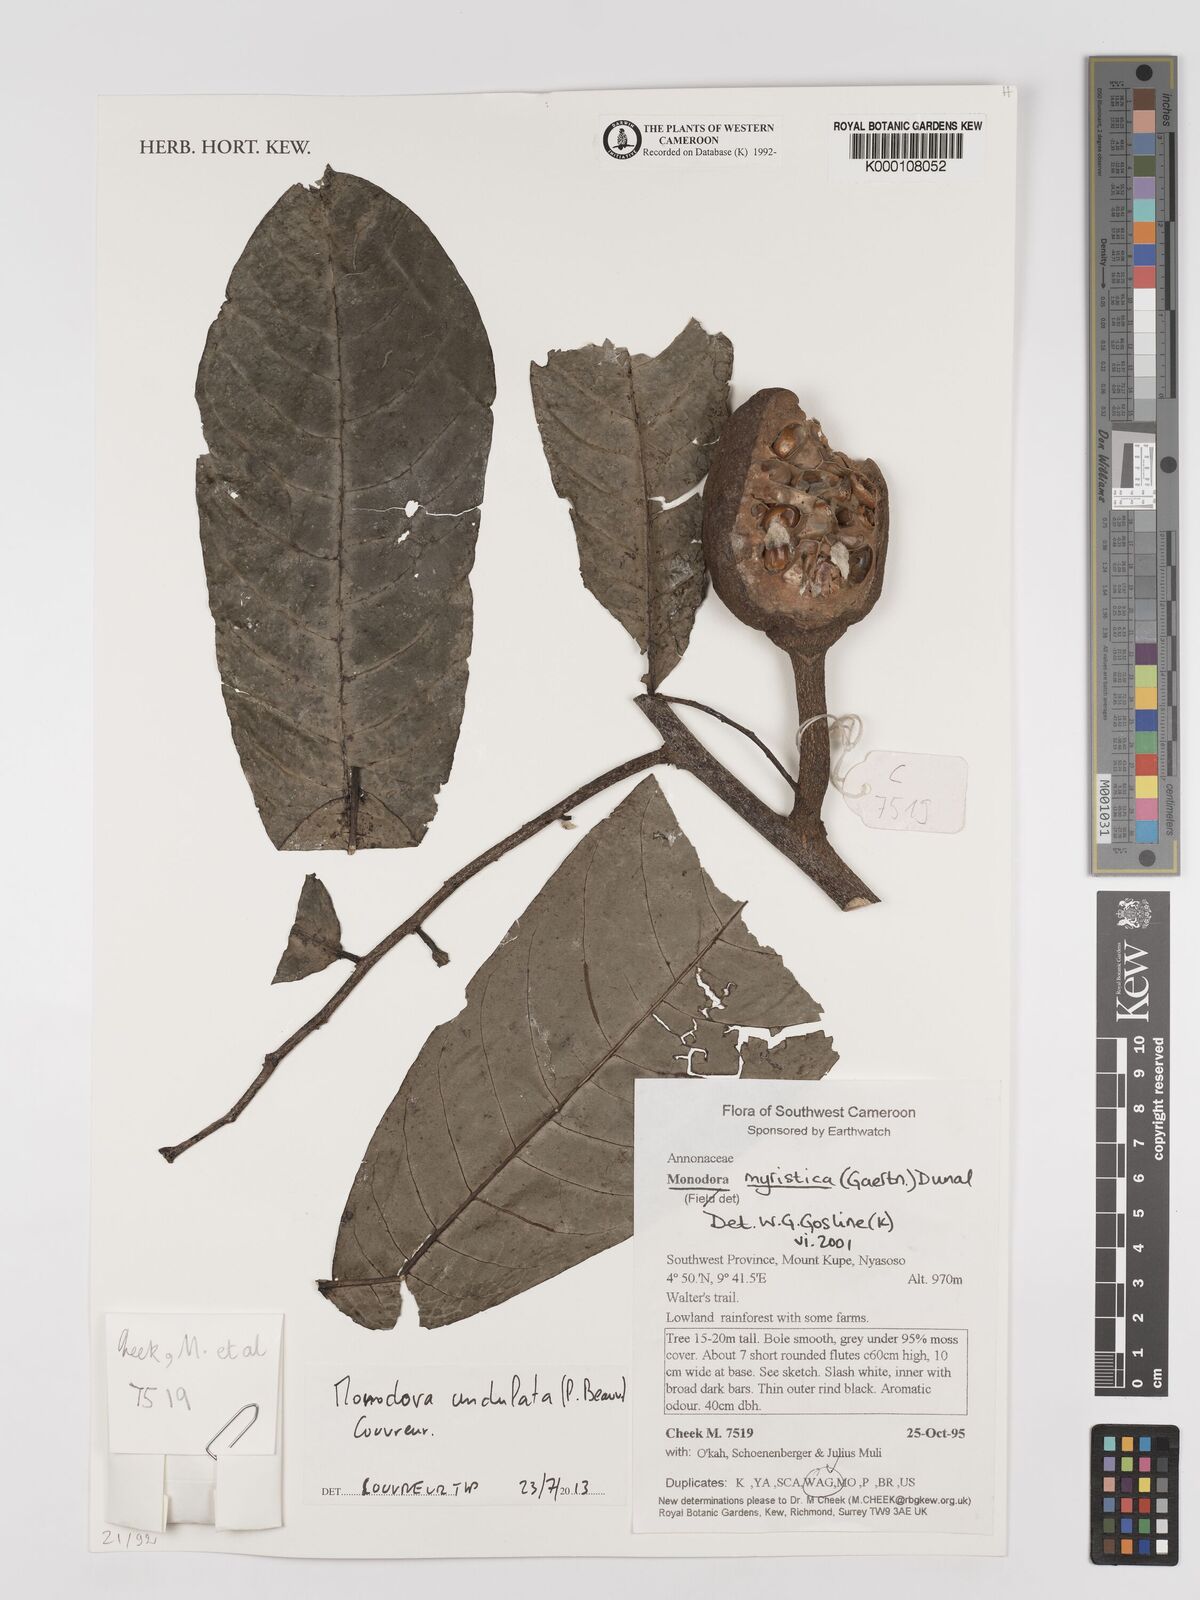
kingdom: Plantae
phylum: Tracheophyta
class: Magnoliopsida
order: Magnoliales
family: Annonaceae
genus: Monodora
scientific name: Monodora myristica
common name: African nutmeg
